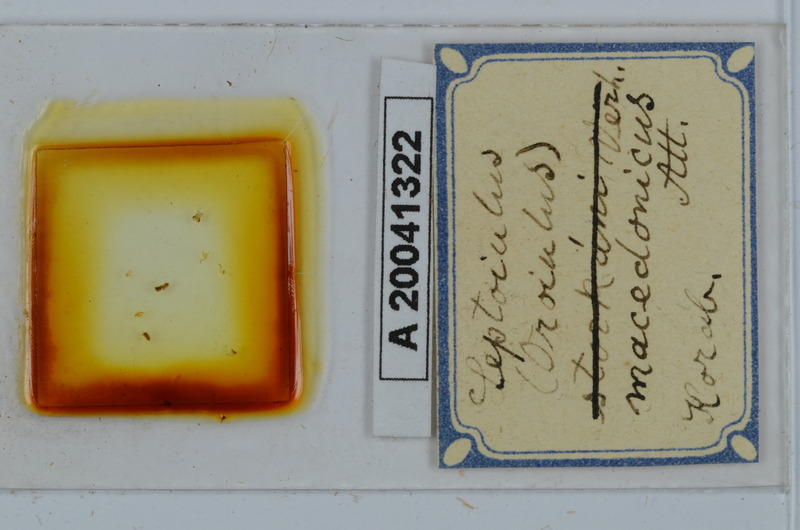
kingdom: Animalia
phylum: Arthropoda
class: Diplopoda
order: Julida
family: Julidae
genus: Leptoiulus
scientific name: Leptoiulus macedonicus
